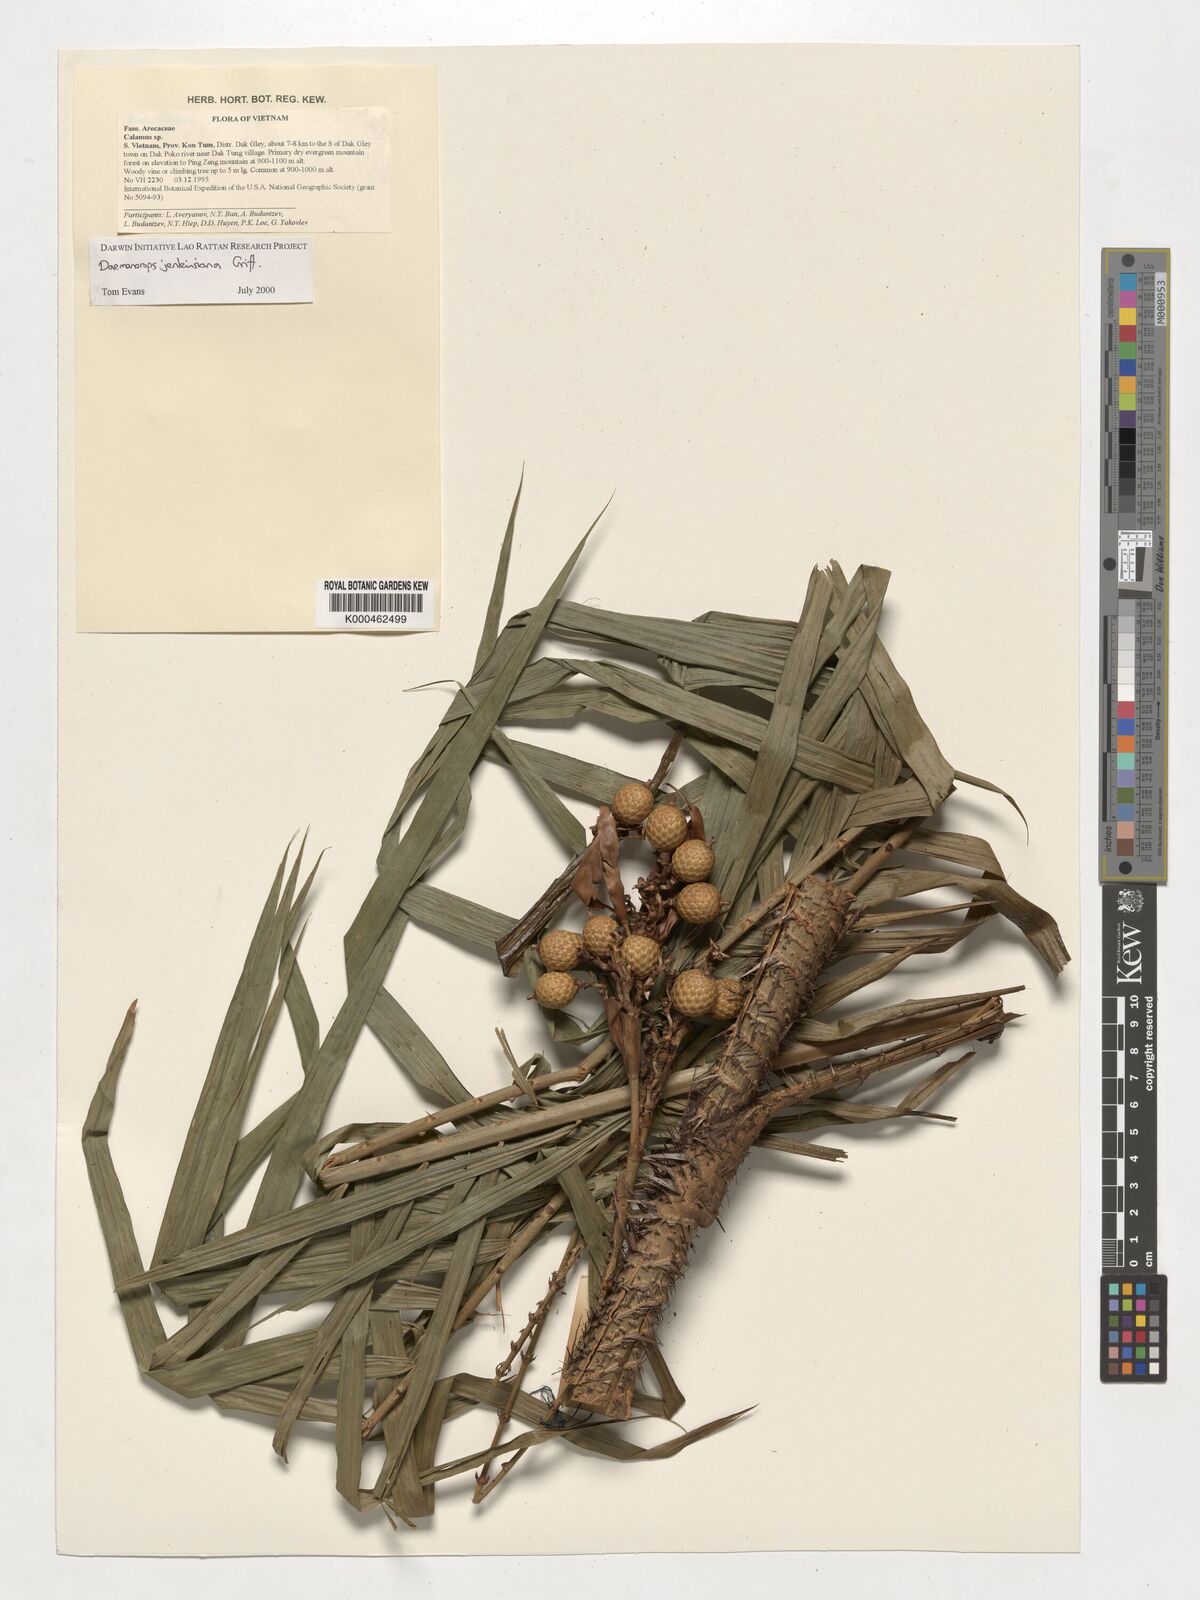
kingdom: Plantae
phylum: Tracheophyta
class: Liliopsida
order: Arecales
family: Arecaceae
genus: Calamus
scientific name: Calamus melanochaetes
